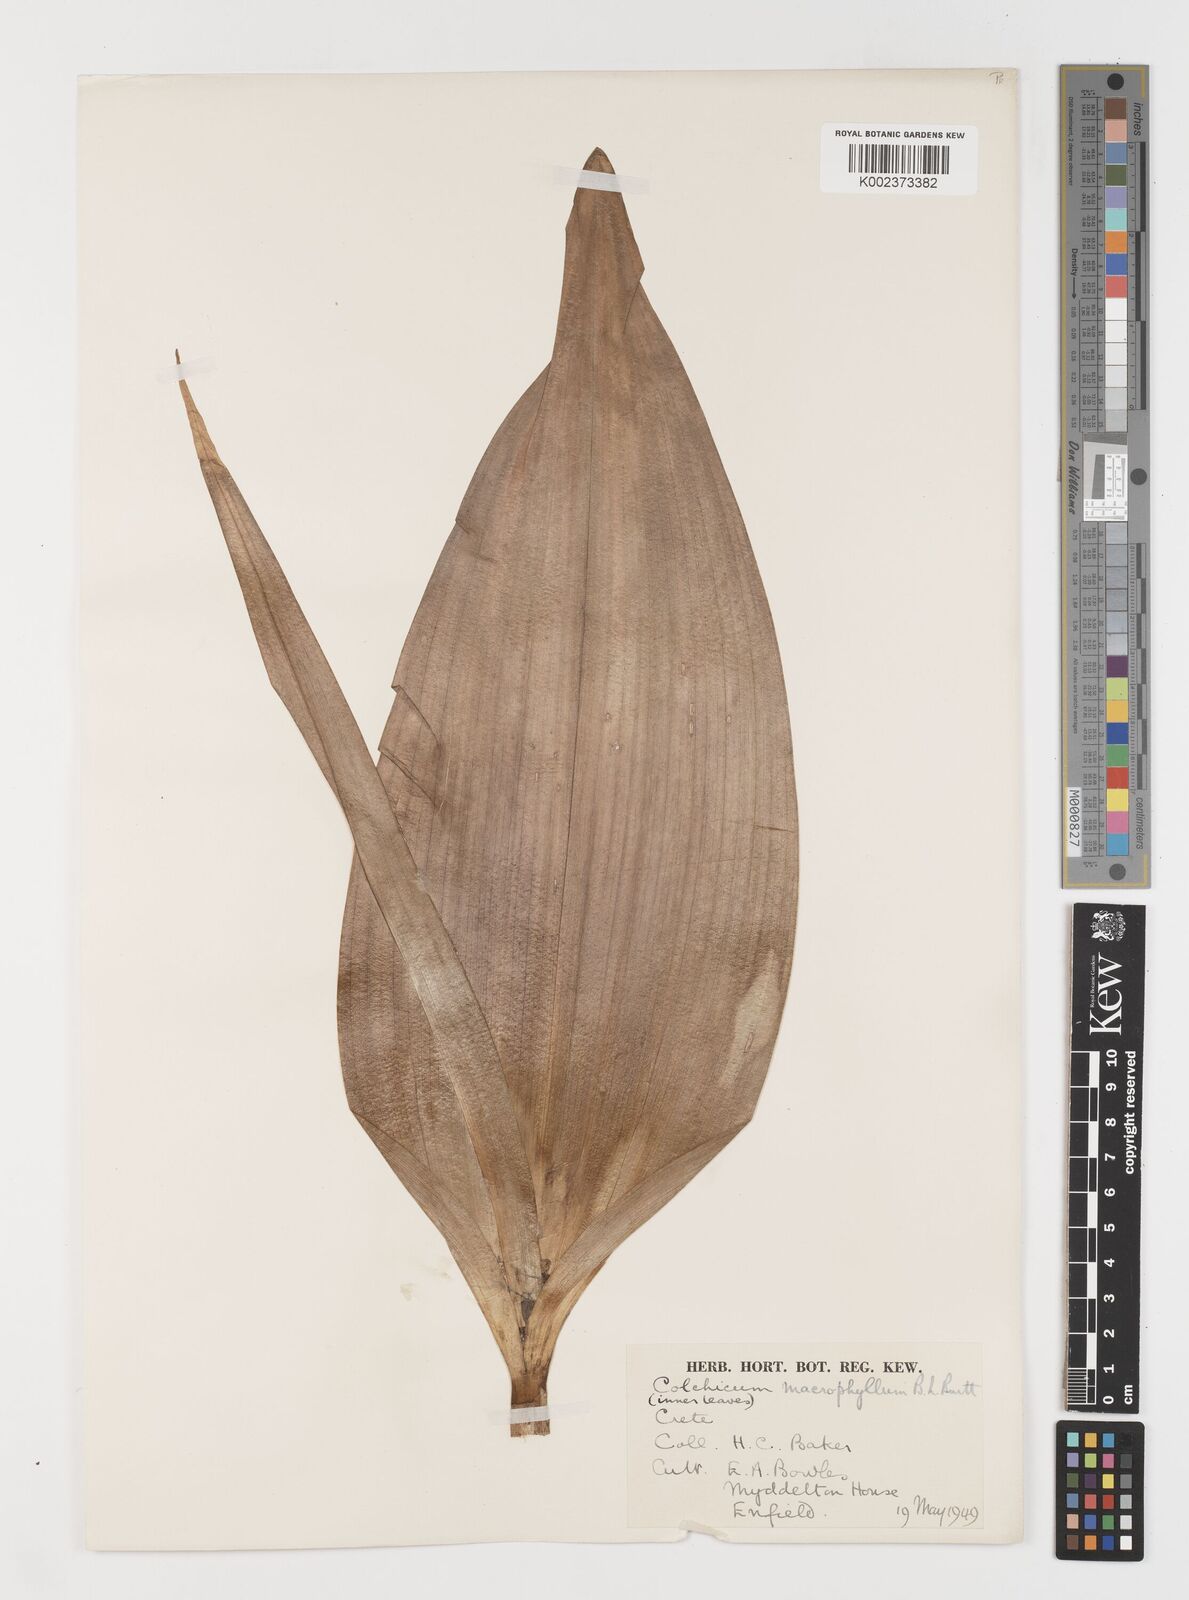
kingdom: Plantae
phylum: Tracheophyta
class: Liliopsida
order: Liliales
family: Colchicaceae
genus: Colchicum
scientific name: Colchicum macrophyllum
